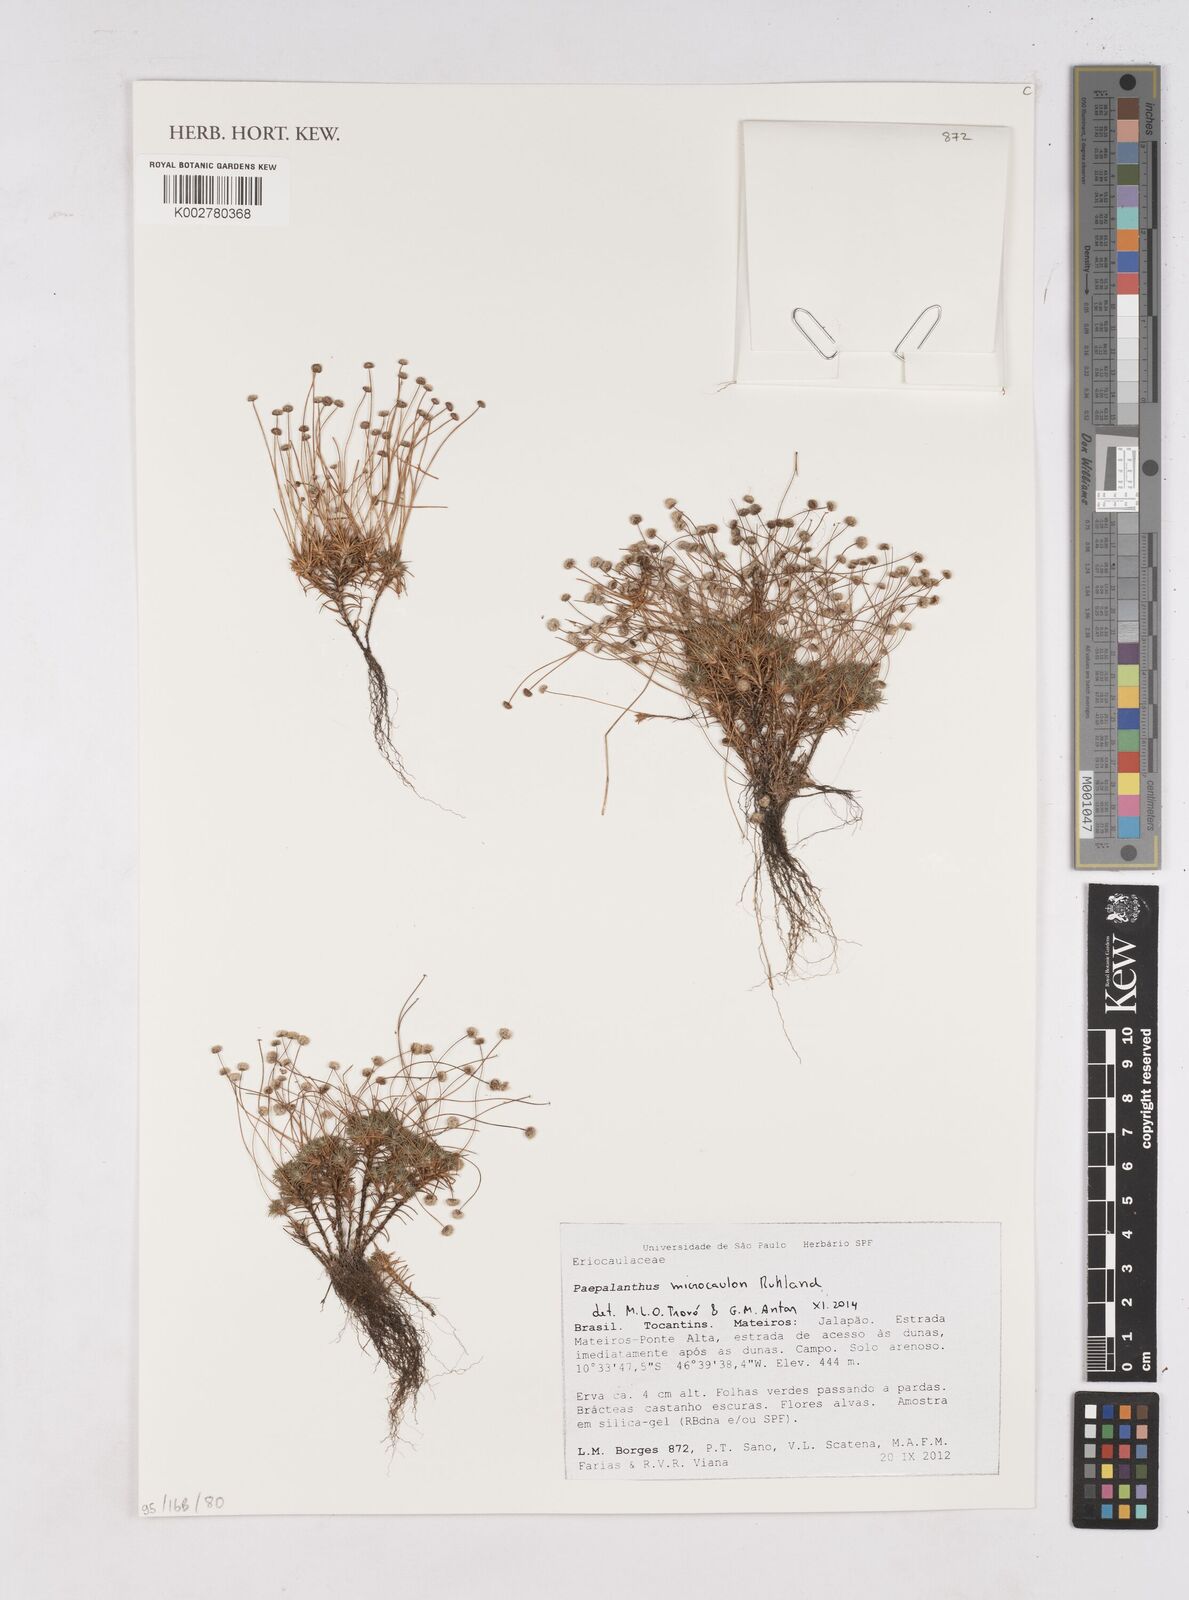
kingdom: Plantae
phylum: Tracheophyta
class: Liliopsida
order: Poales
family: Eriocaulaceae
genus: Paepalanthus
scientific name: Paepalanthus microcaulon
